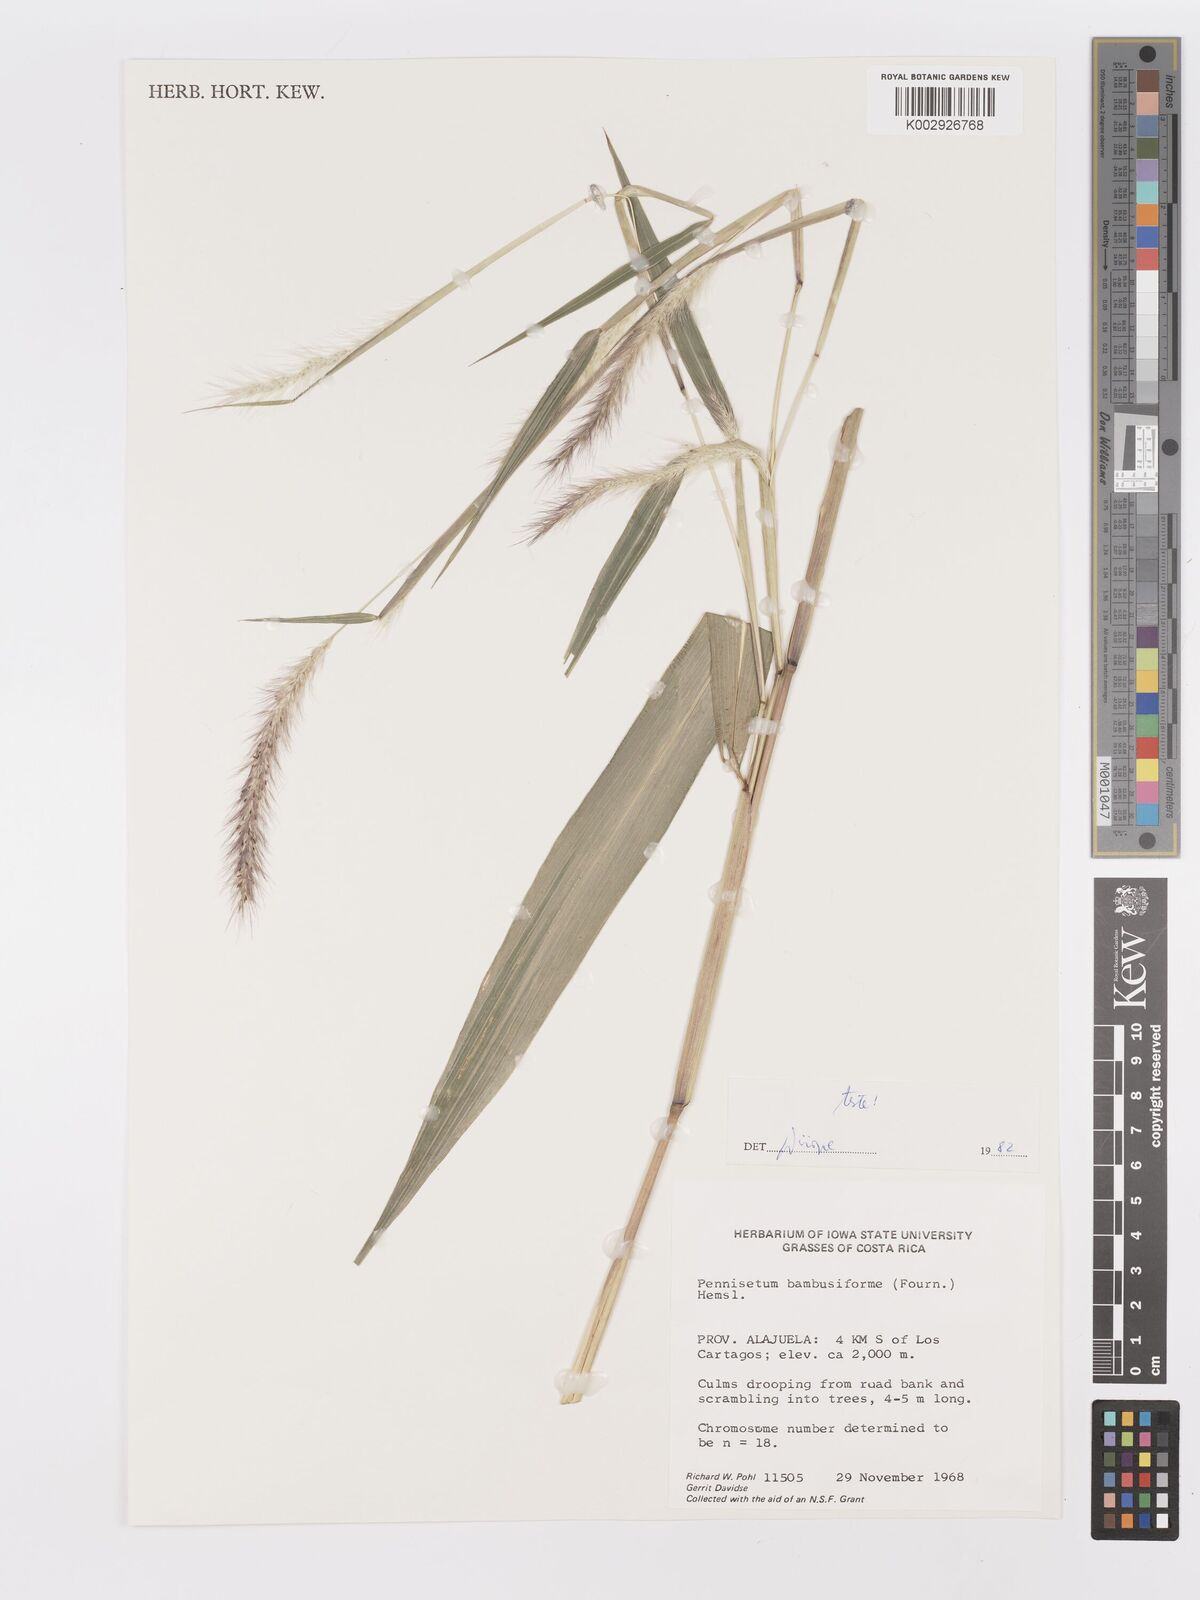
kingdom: Plantae
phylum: Tracheophyta
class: Liliopsida
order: Poales
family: Poaceae
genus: Cenchrus
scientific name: Cenchrus preslii
